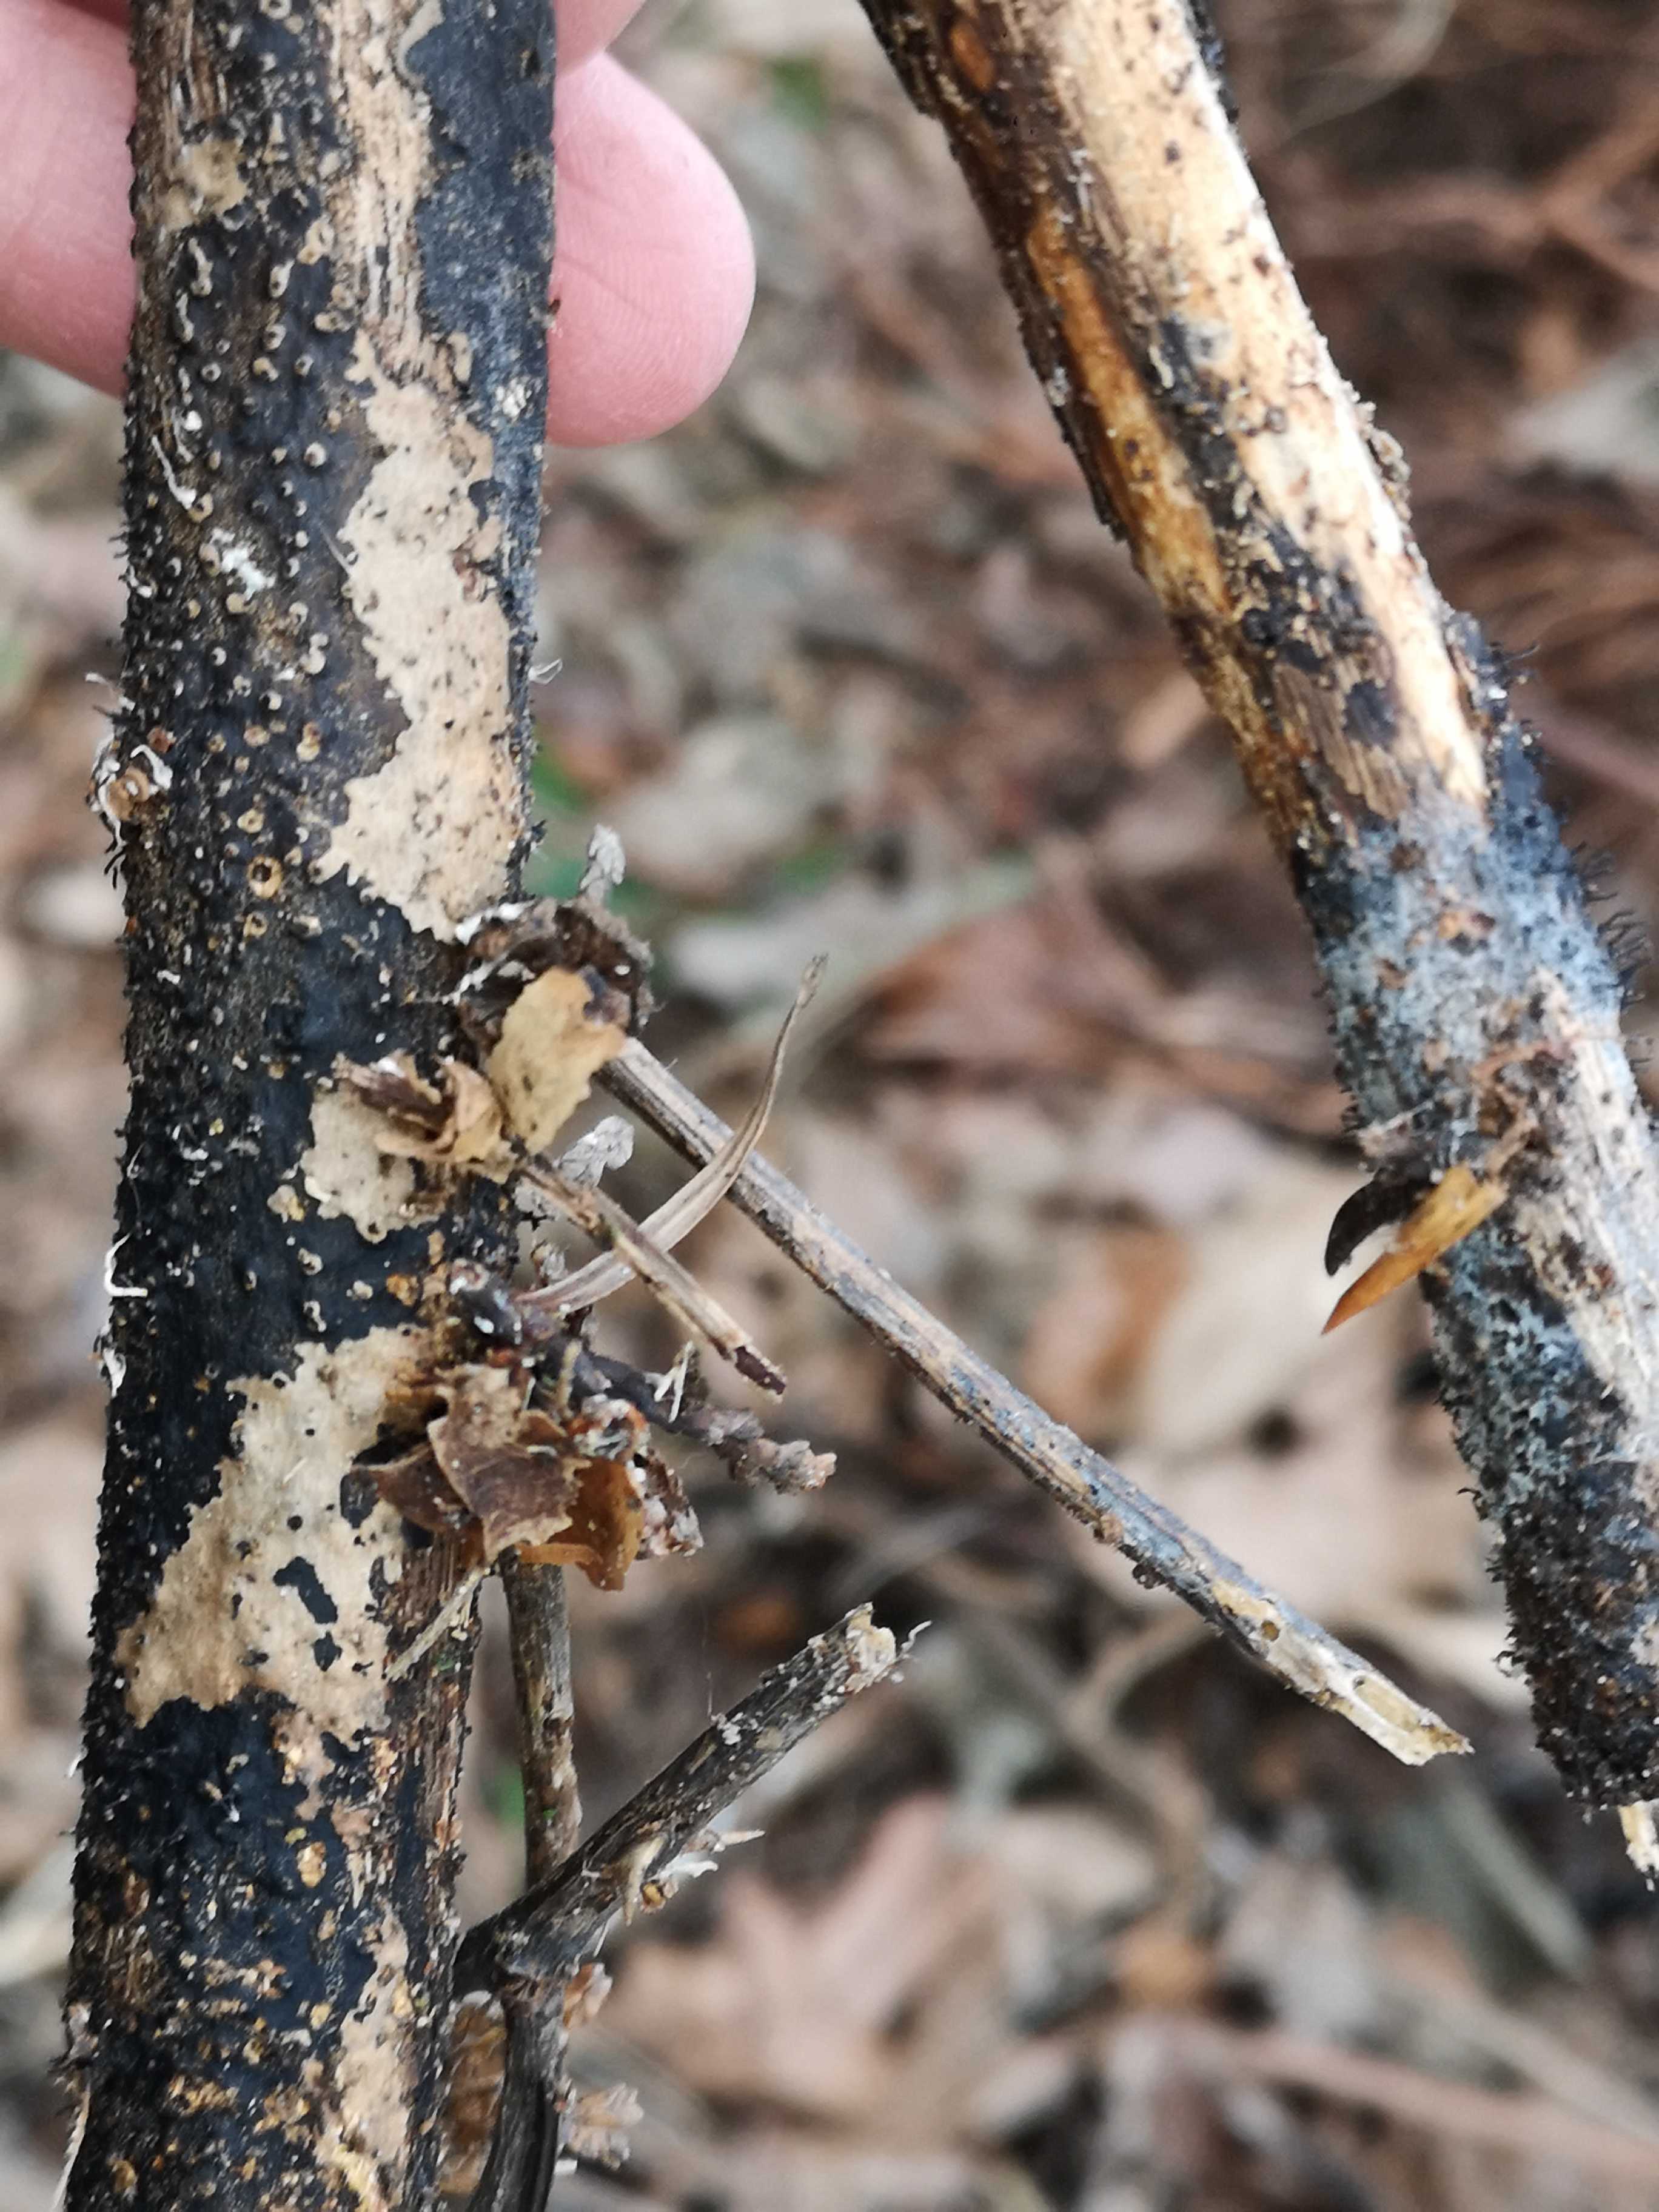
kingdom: Fungi
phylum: Ascomycota
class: Sordariomycetes
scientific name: Sordariomycetes
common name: kernesvampklassen
